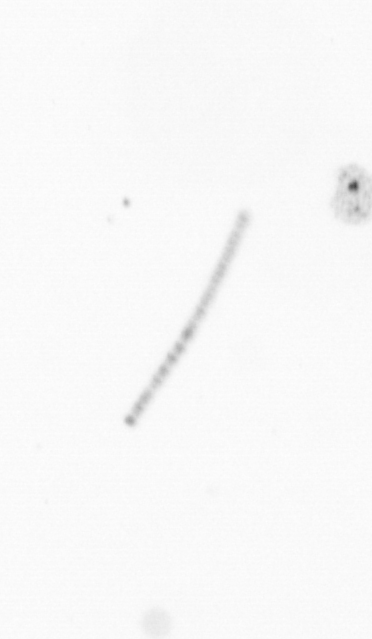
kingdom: Chromista
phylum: Ochrophyta
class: Bacillariophyceae
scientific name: Bacillariophyceae
